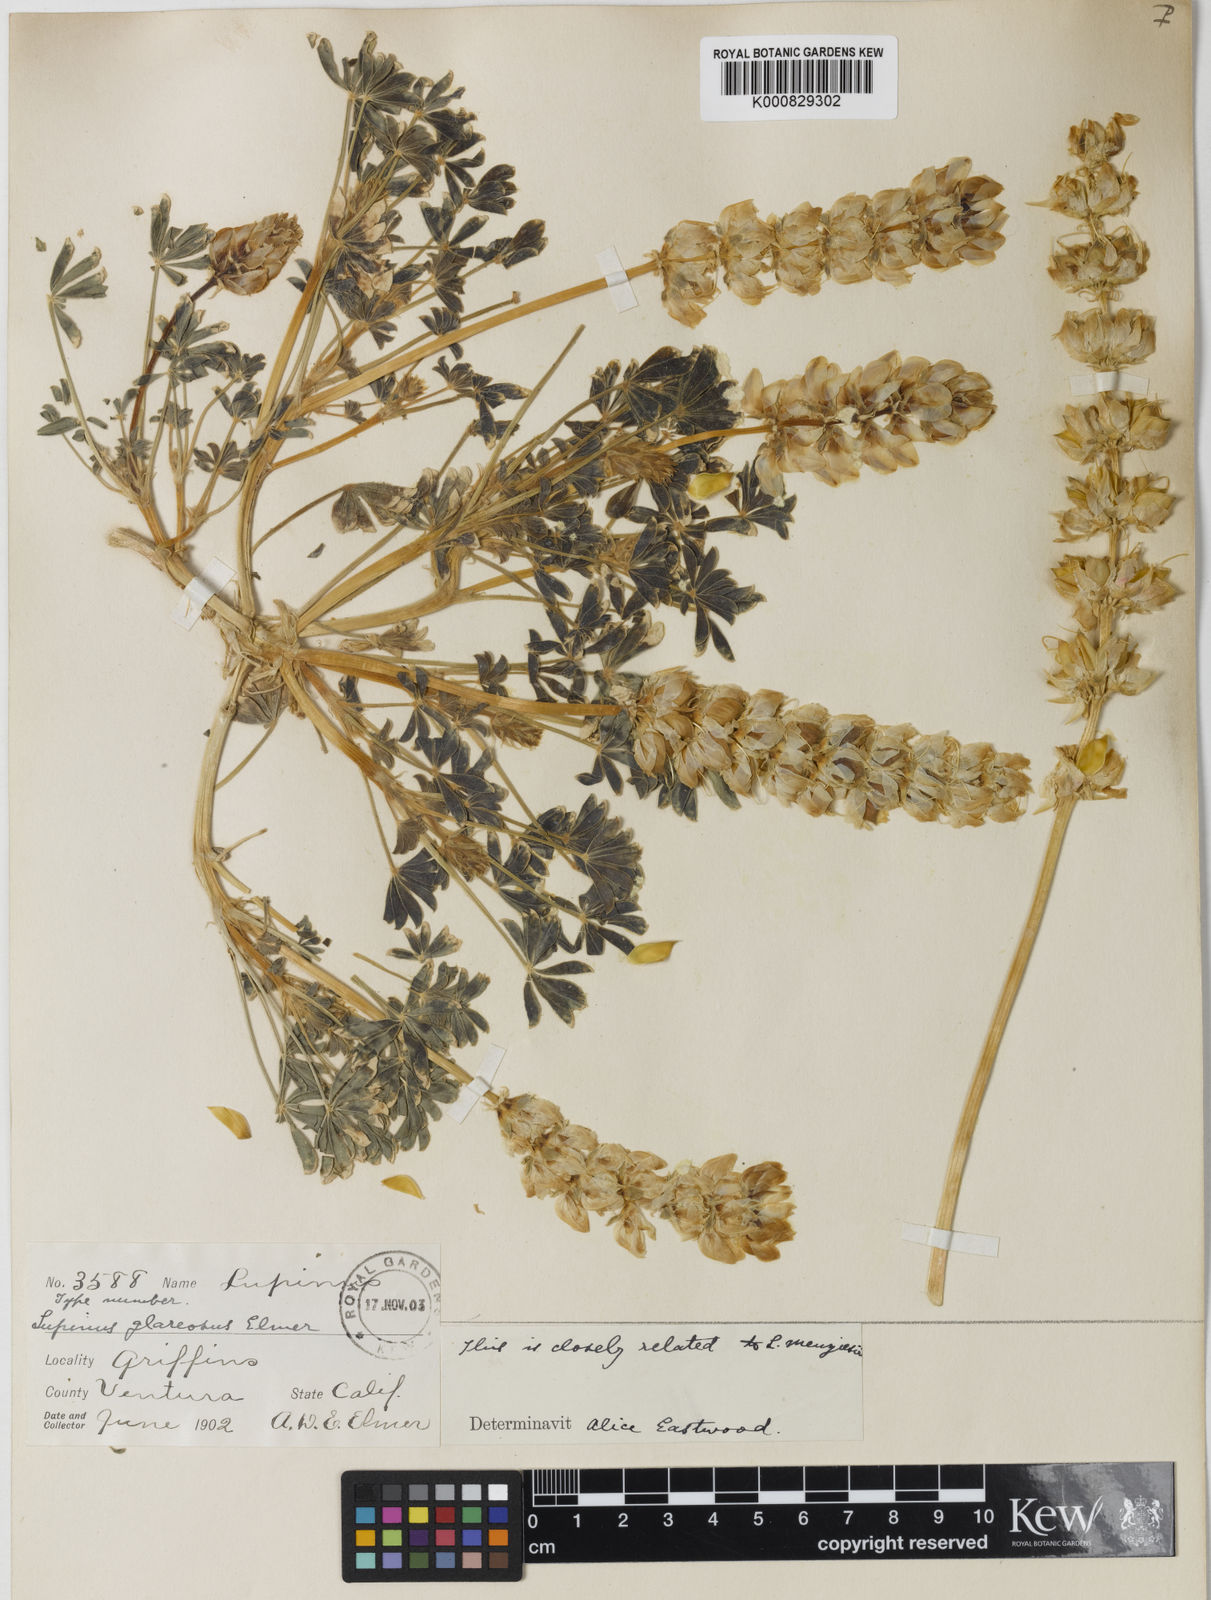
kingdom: Plantae
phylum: Tracheophyta
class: Magnoliopsida
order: Fabales
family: Fabaceae
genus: Lupinus
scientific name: Lupinus horizontalis
